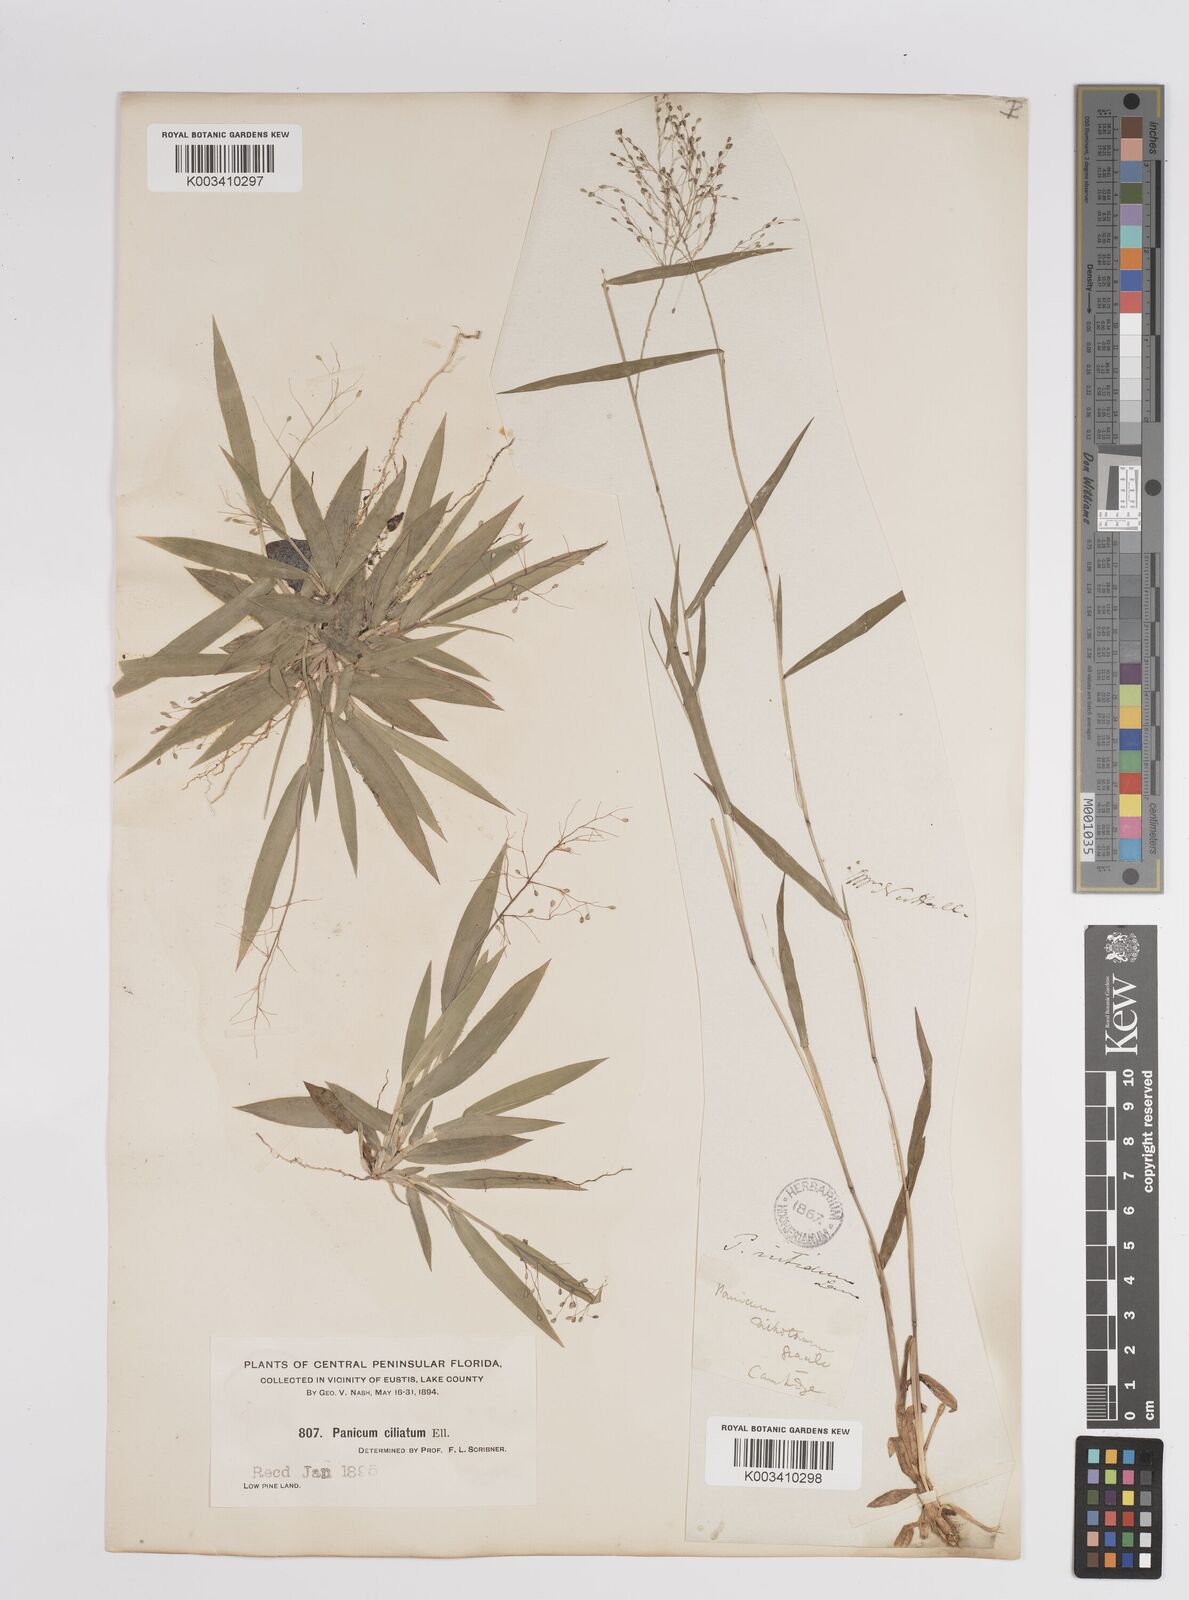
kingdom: Plantae
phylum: Tracheophyta
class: Liliopsida
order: Poales
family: Poaceae
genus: Dichanthelium
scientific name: Dichanthelium strigosum
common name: Cushion-tuft panic grass
